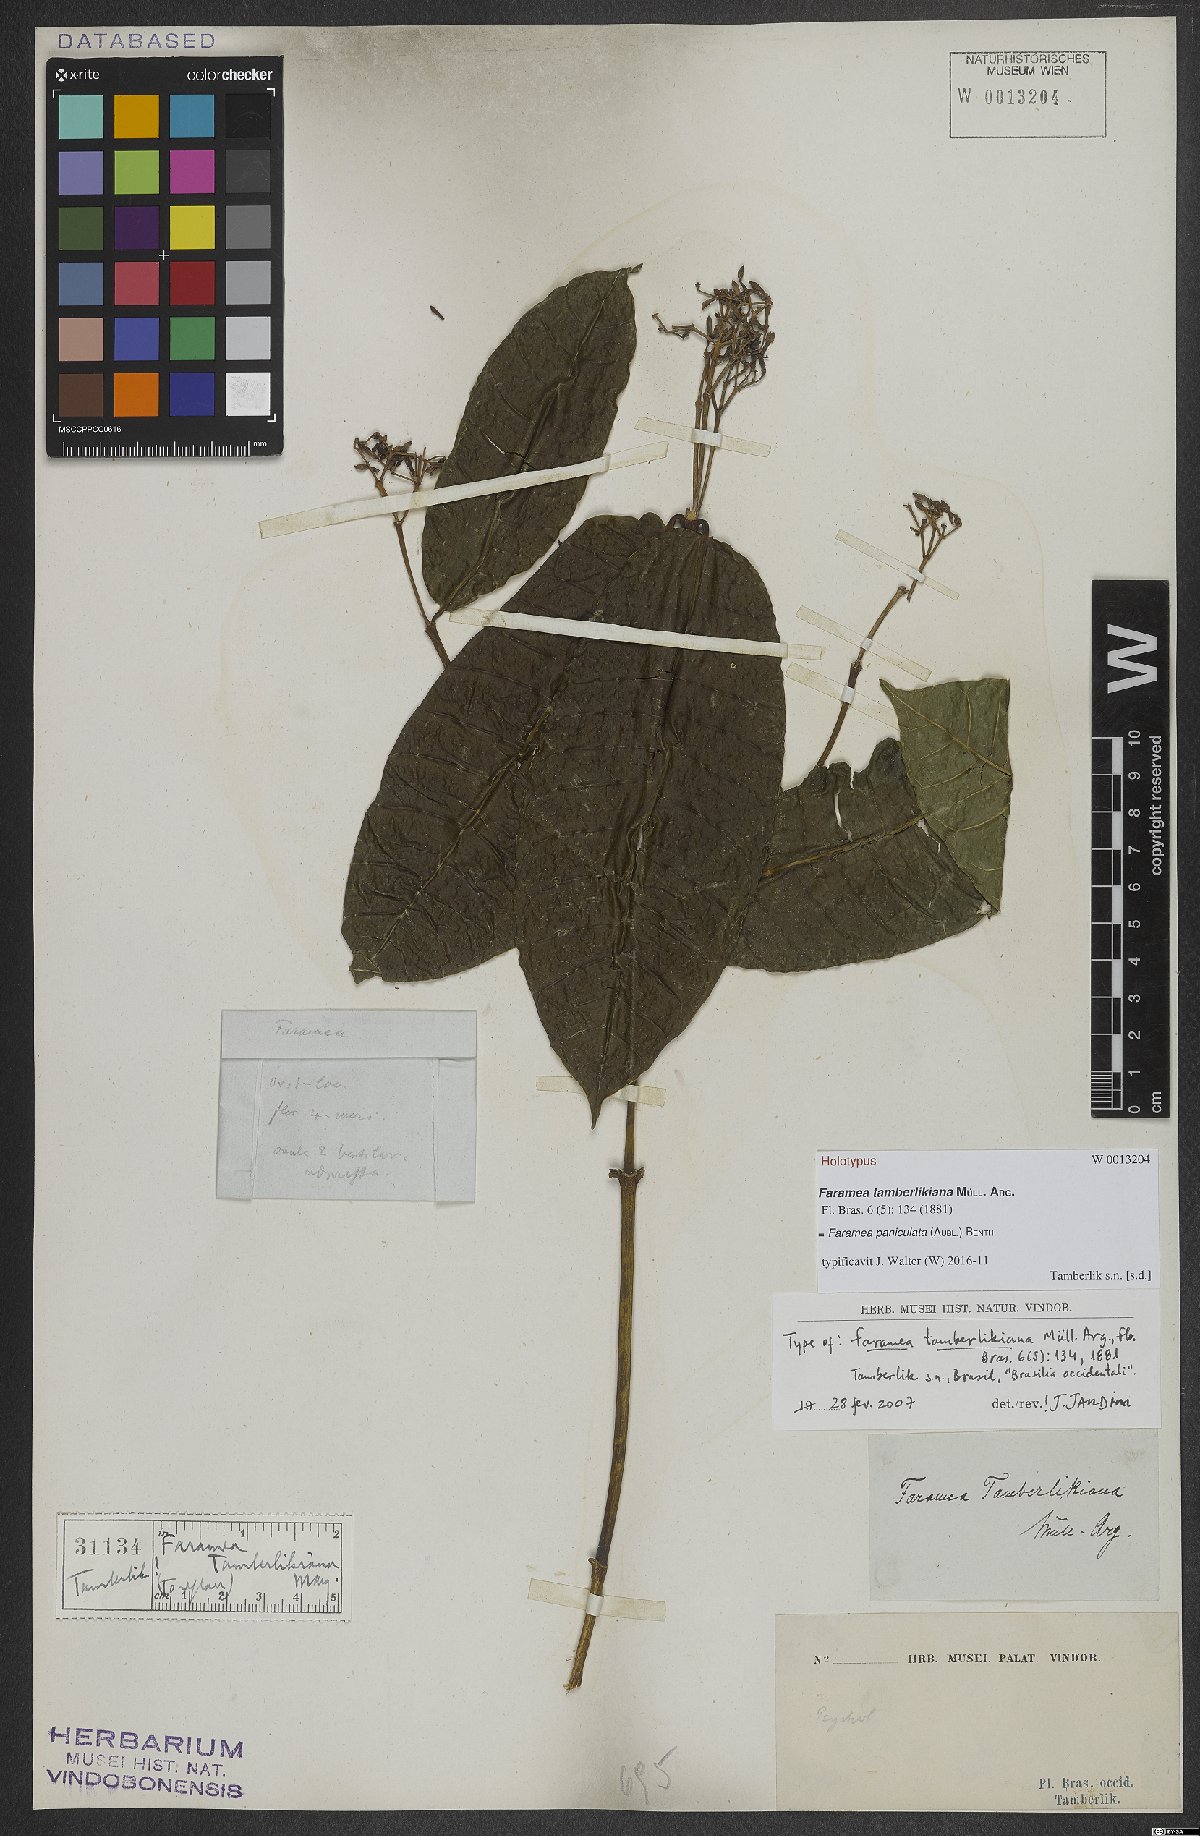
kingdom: Plantae
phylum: Tracheophyta
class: Magnoliopsida
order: Gentianales
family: Rubiaceae
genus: Faramea
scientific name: Faramea paniculata
